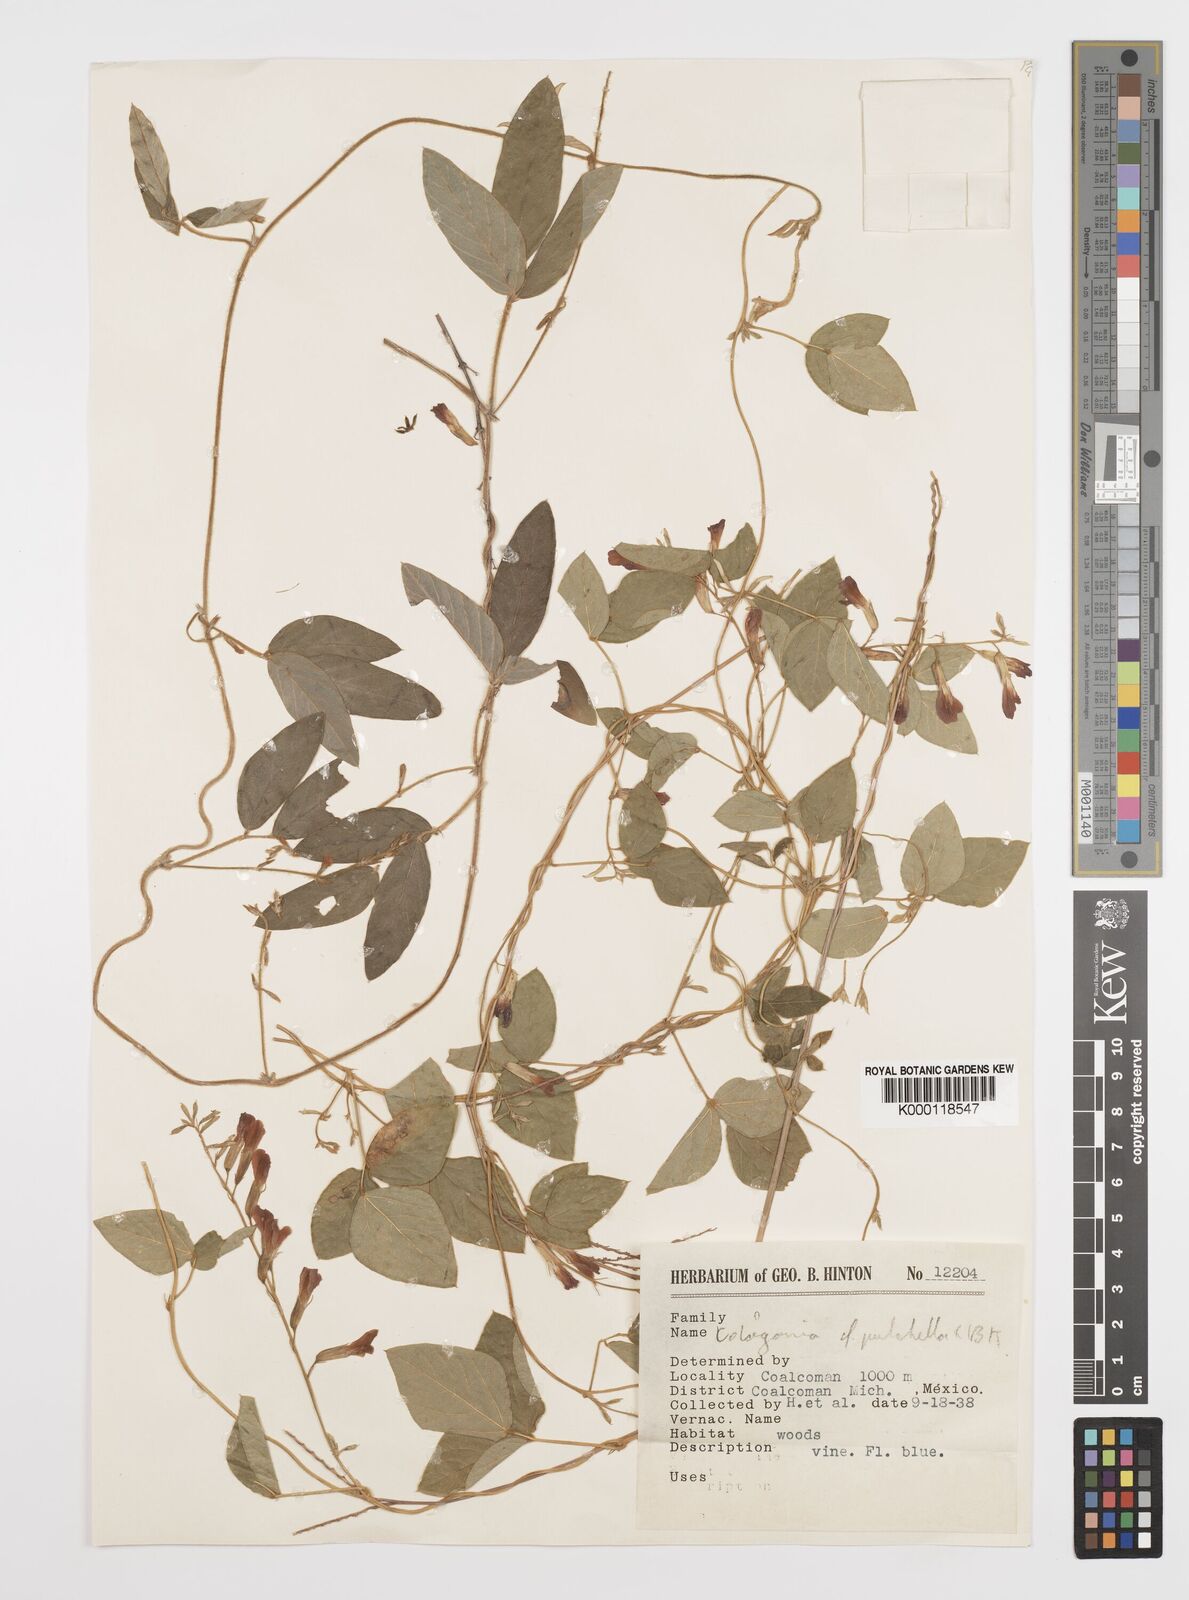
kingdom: Plantae
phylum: Tracheophyta
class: Magnoliopsida
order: Fabales
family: Fabaceae
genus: Cologania
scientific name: Cologania broussonetii
